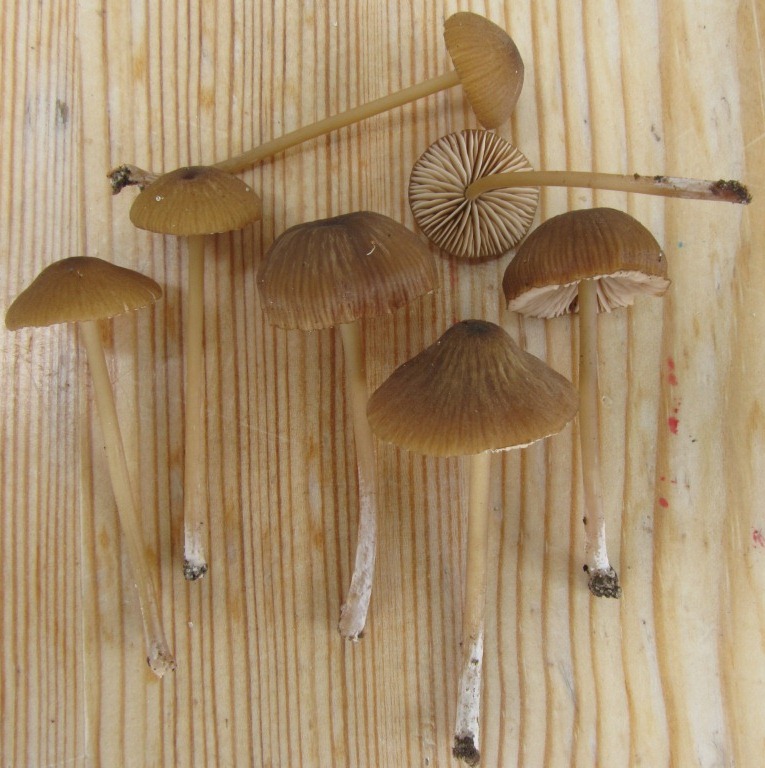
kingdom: Fungi
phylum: Basidiomycota
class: Agaricomycetes
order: Agaricales
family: Entolomataceae
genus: Entoloma
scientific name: Entoloma longistriatum
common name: gråfodet rødblad
